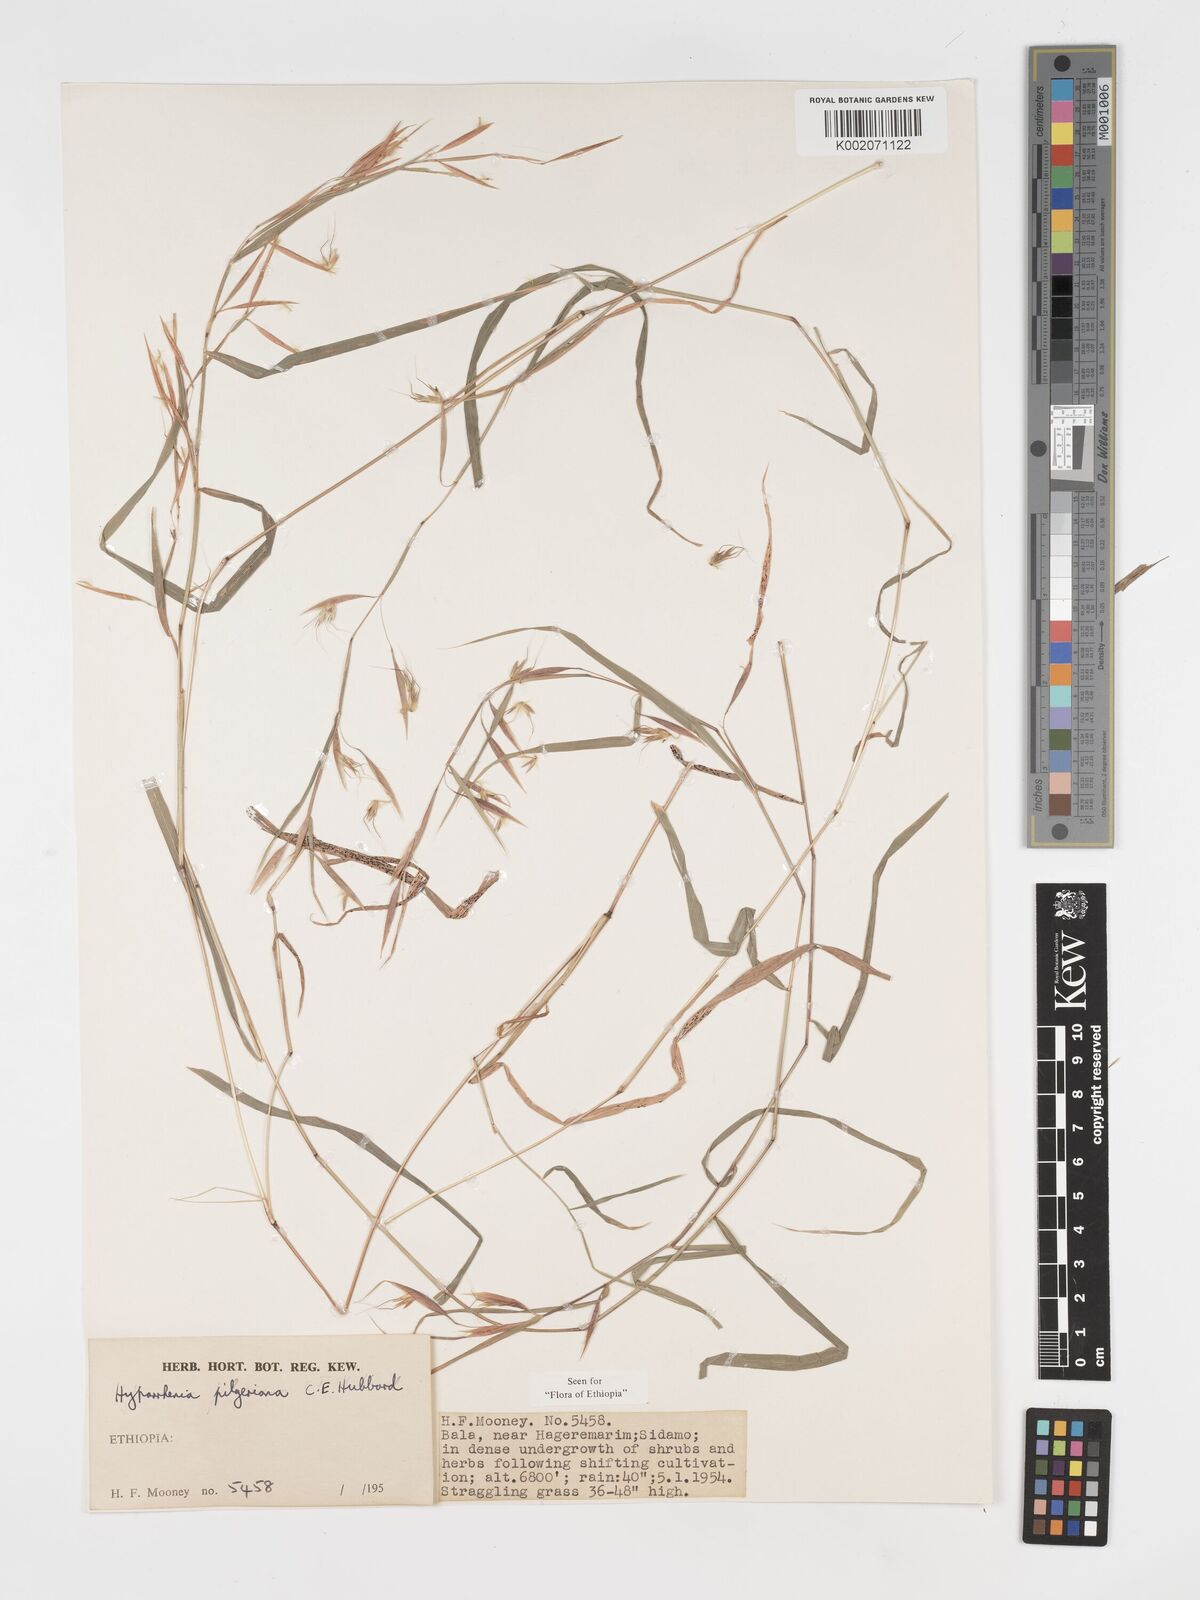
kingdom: Plantae
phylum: Tracheophyta
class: Liliopsida
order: Poales
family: Poaceae
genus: Hyparrhenia
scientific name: Hyparrhenia pilgeriana
